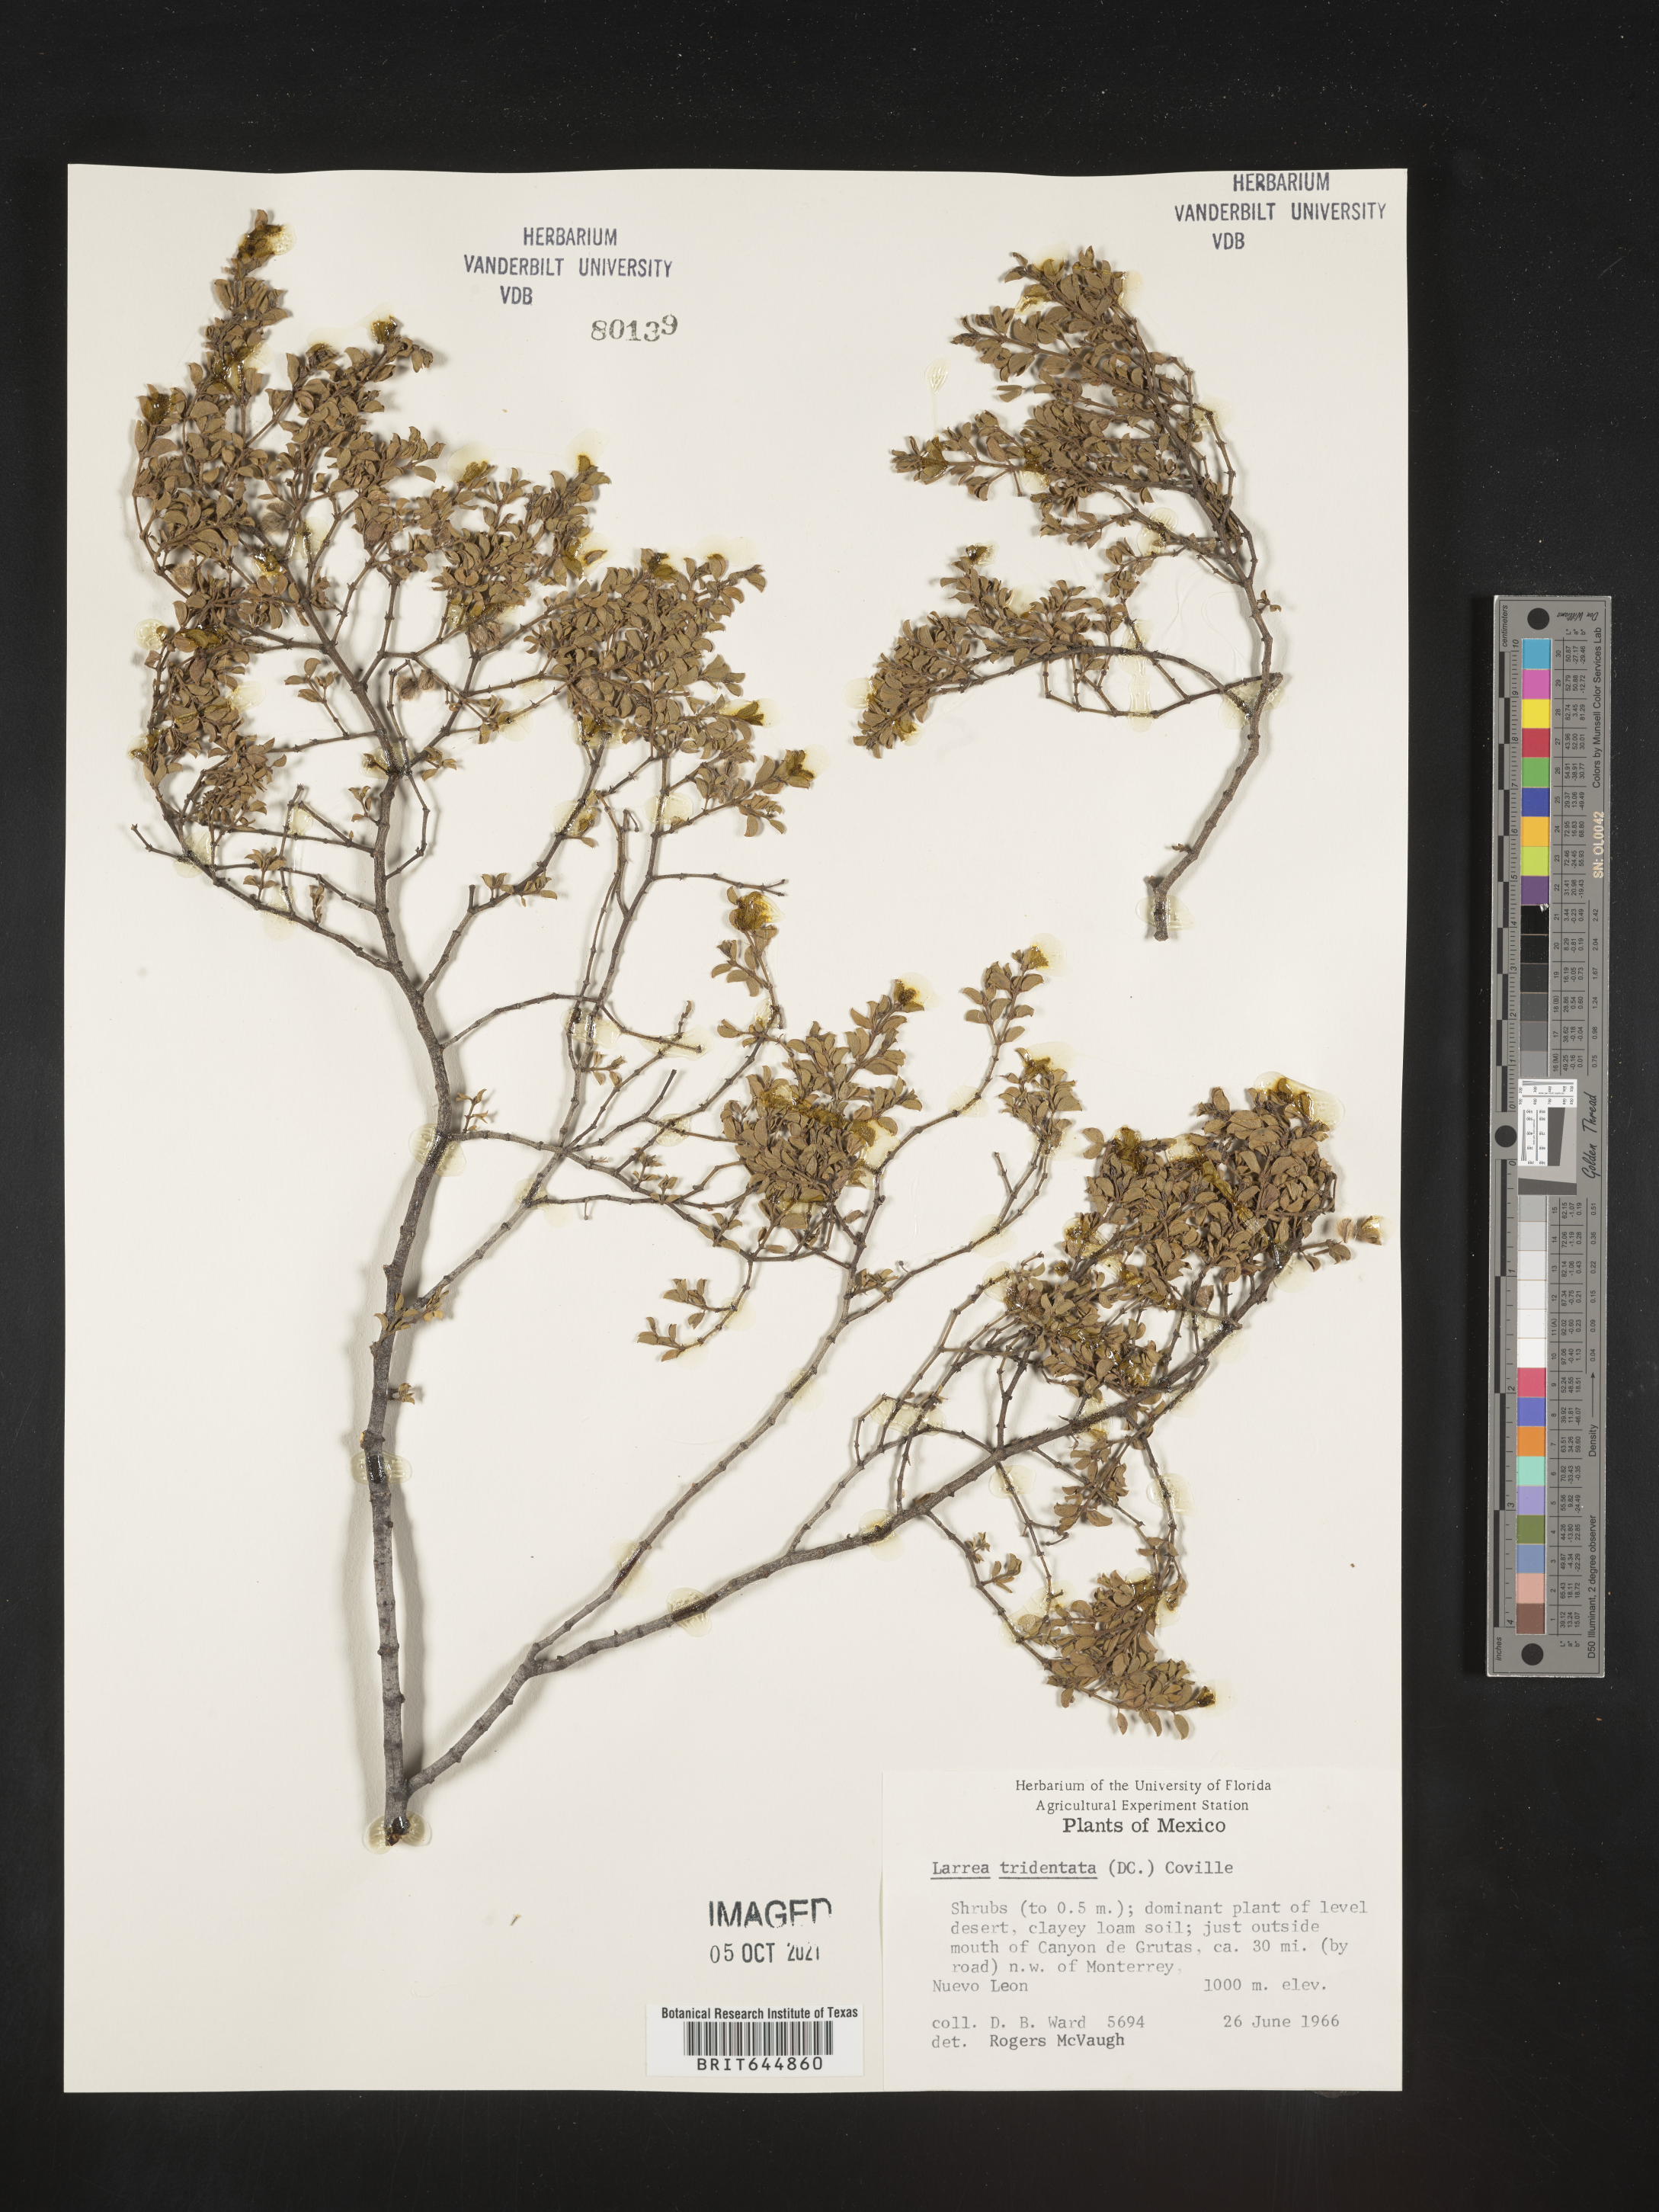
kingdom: Plantae
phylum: Tracheophyta
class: Magnoliopsida
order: Zygophyllales
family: Zygophyllaceae
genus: Larrea
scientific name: Larrea
